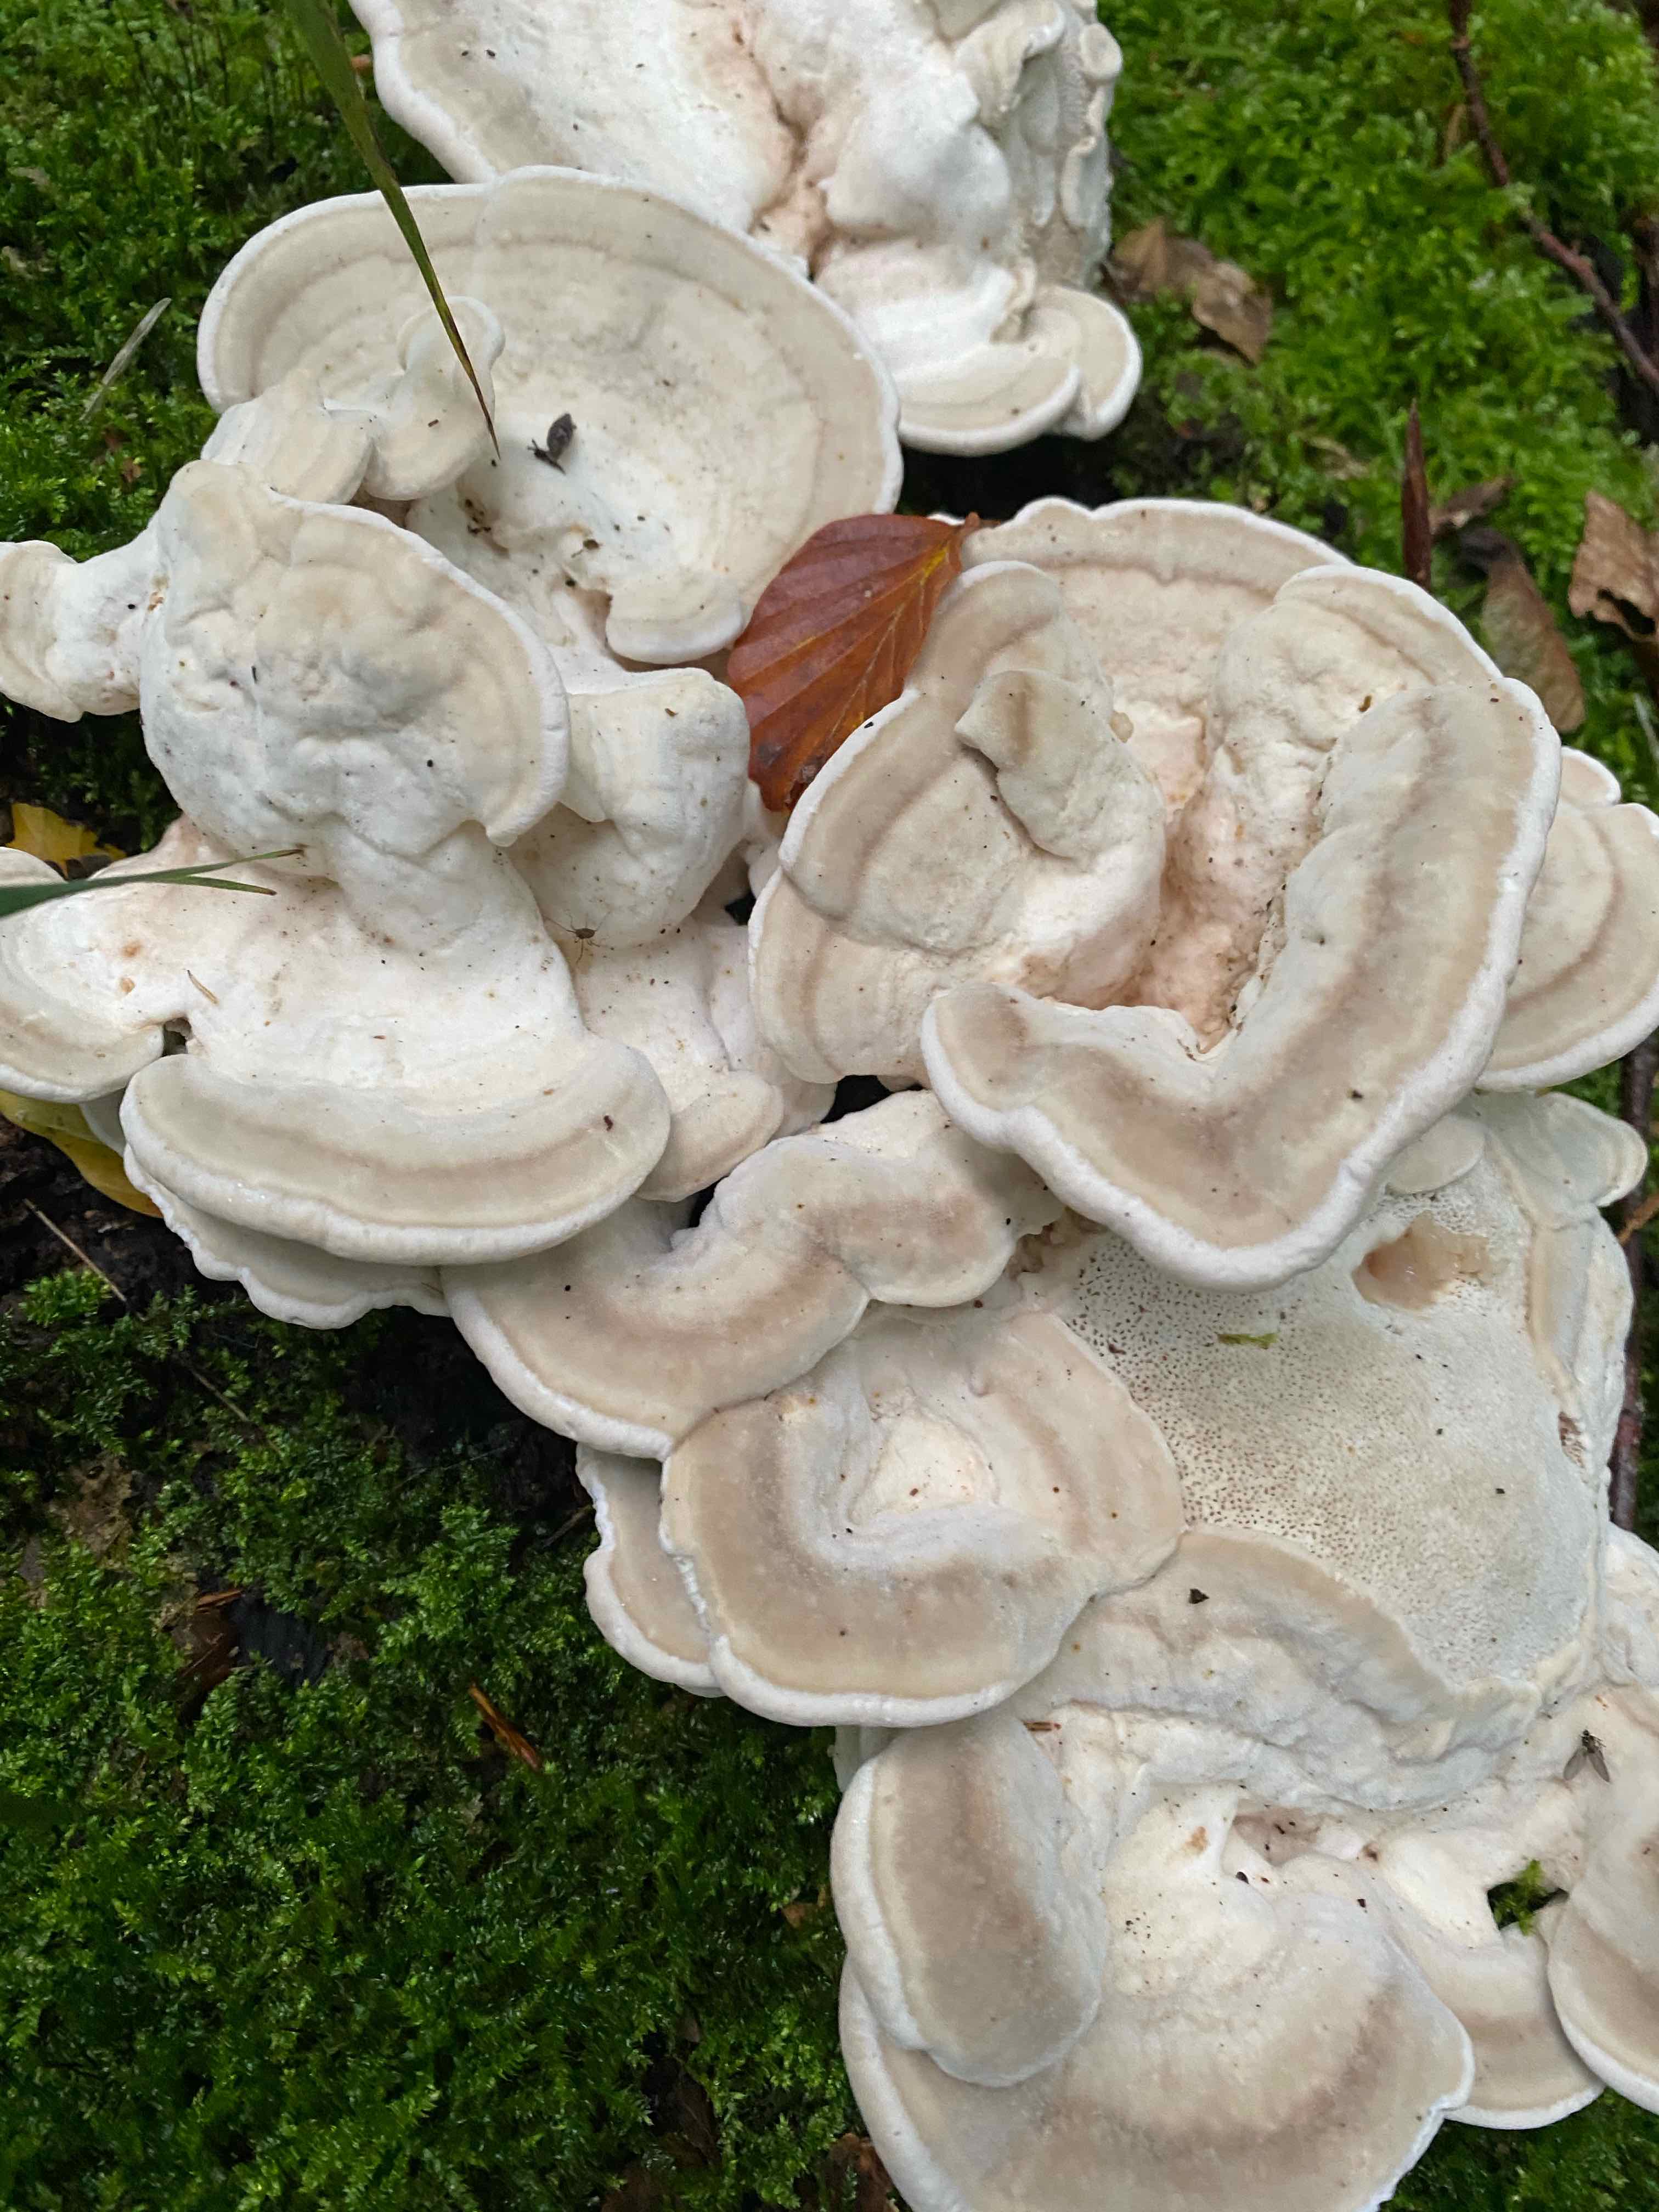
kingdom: Fungi
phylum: Basidiomycota
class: Agaricomycetes
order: Polyporales
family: Polyporaceae
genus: Trametes
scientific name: Trametes gibbosa
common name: puklet læderporesvamp
